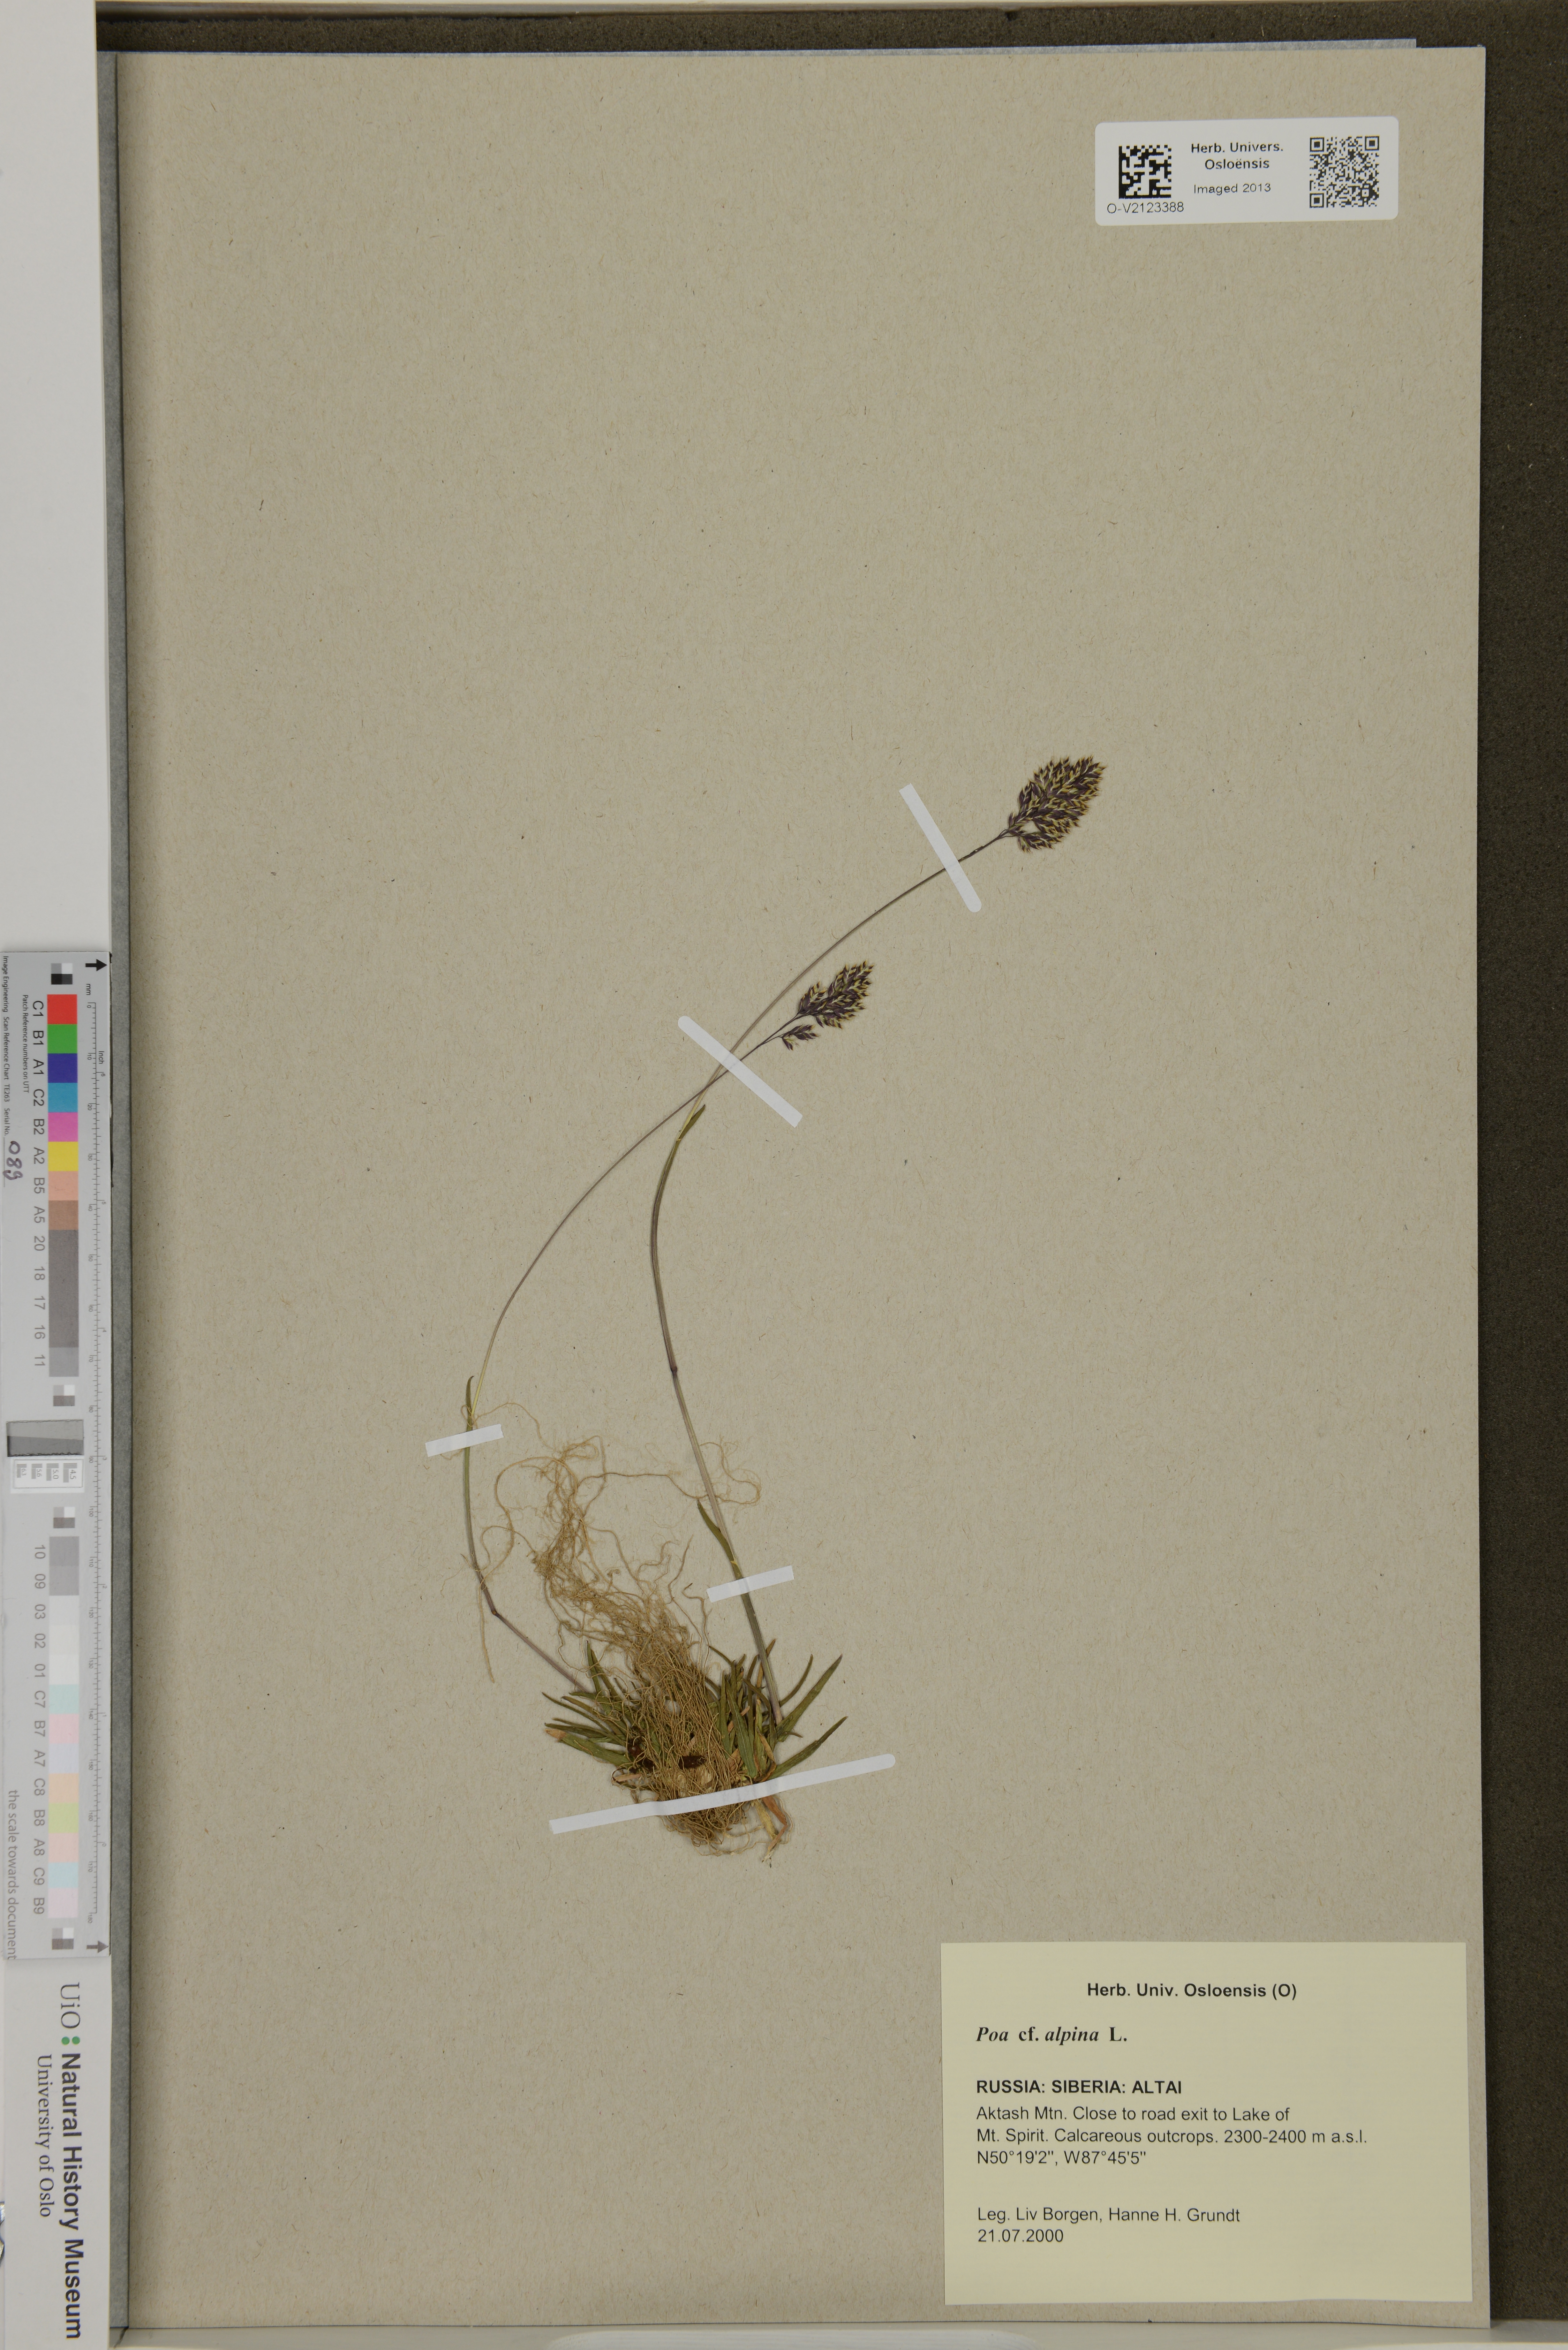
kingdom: Plantae
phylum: Tracheophyta
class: Liliopsida
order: Poales
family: Poaceae
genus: Poa
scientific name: Poa alpina
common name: Alpine bluegrass
